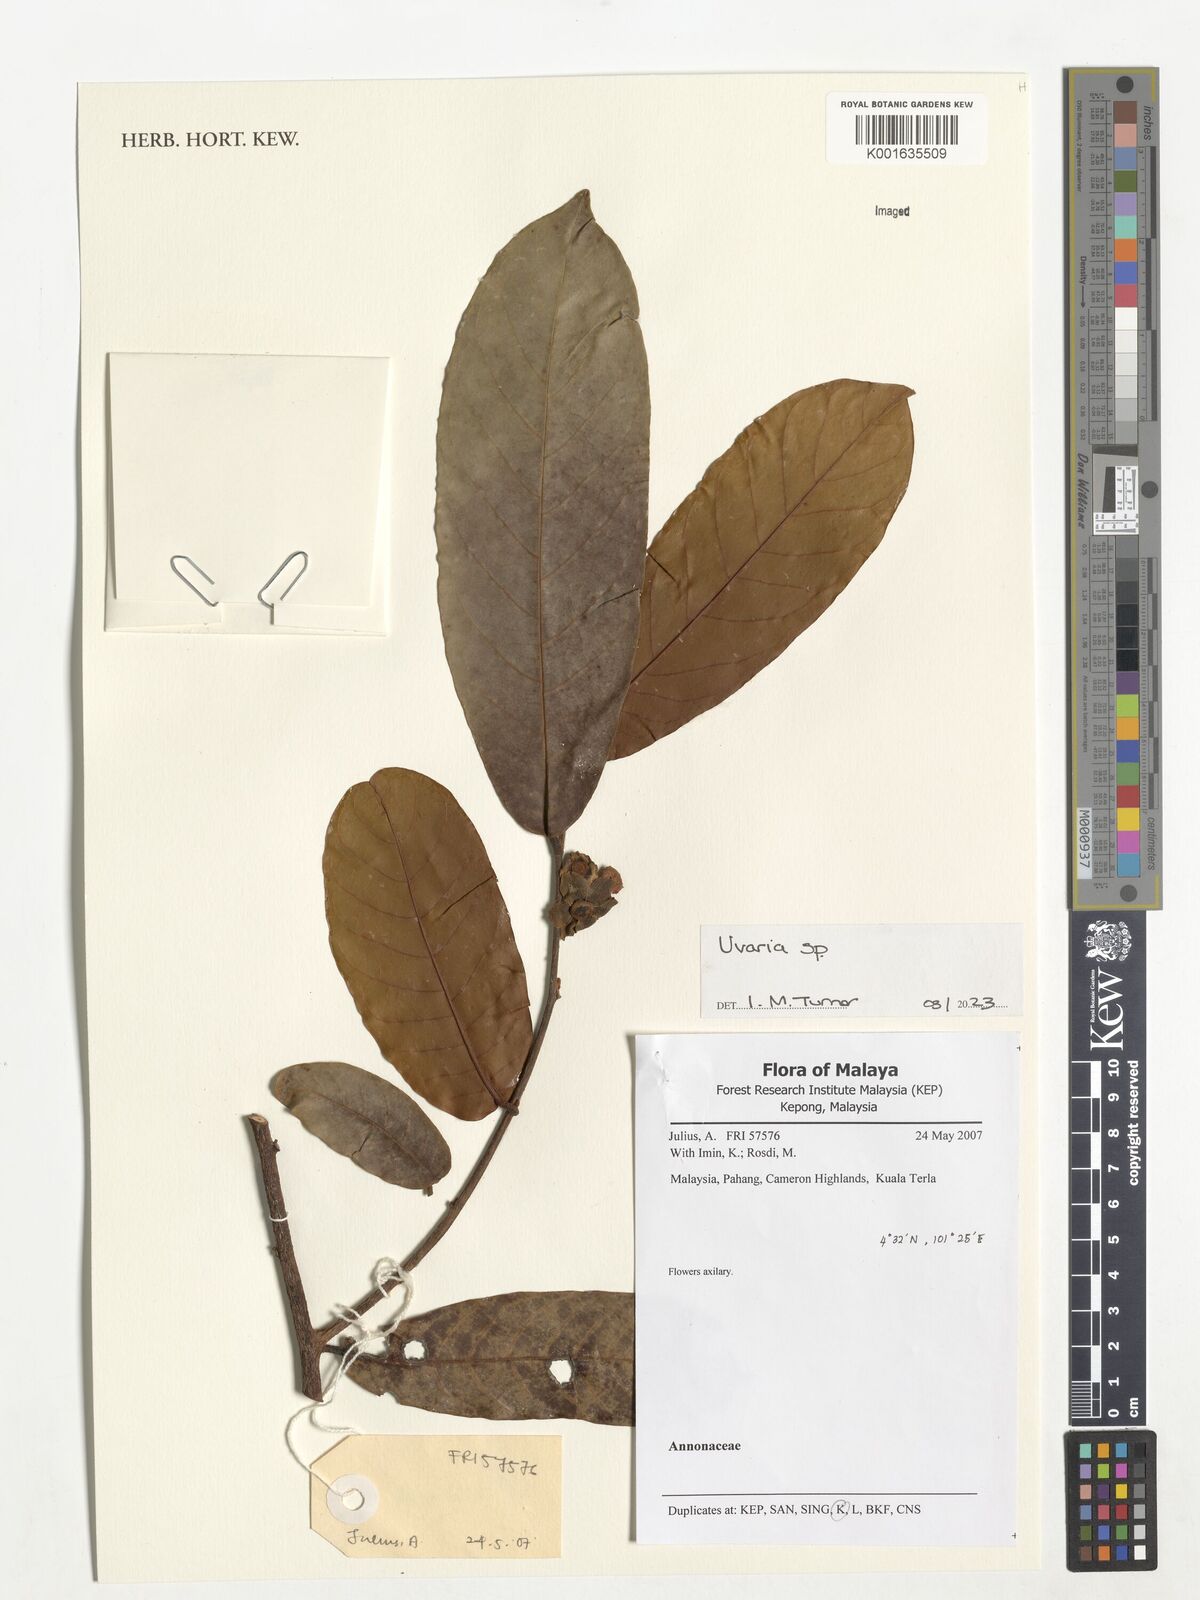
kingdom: Plantae
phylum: Tracheophyta
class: Magnoliopsida
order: Magnoliales
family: Annonaceae
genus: Uvaria
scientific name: Uvaria
